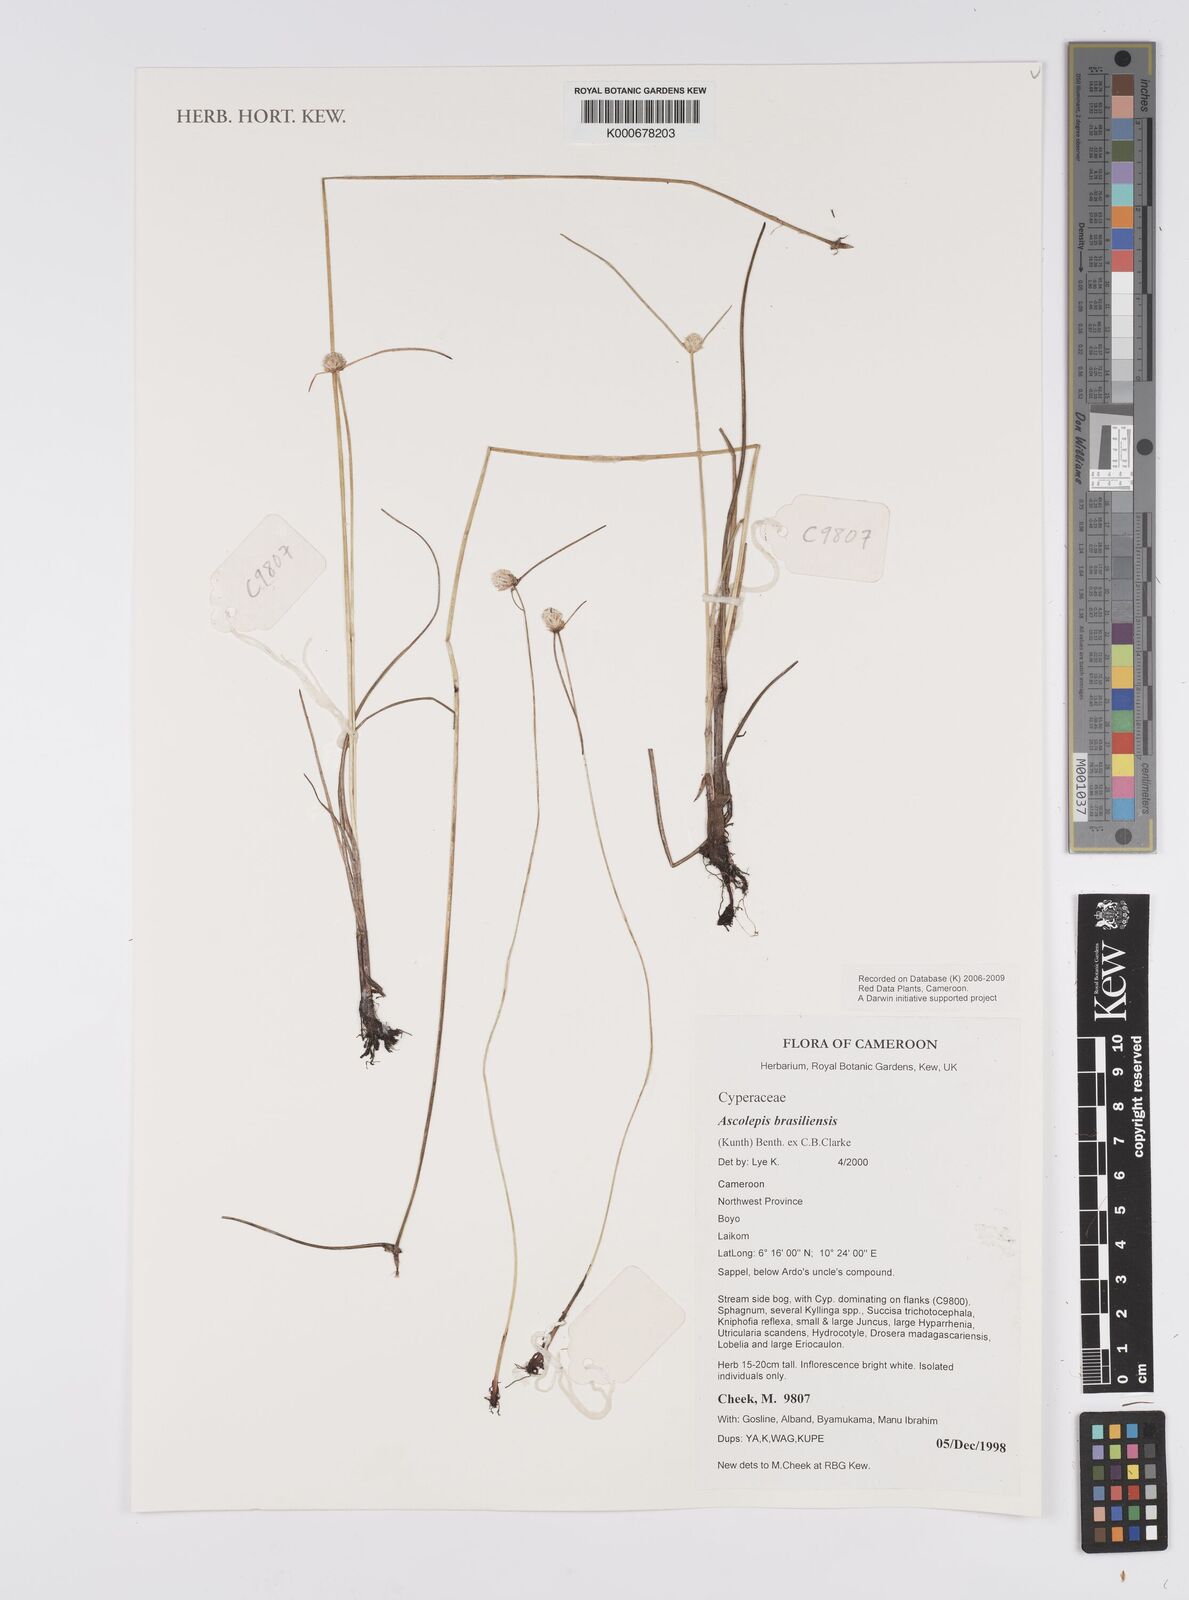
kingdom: Plantae
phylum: Tracheophyta
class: Liliopsida
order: Poales
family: Cyperaceae
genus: Cyperus
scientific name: Cyperus brasiliensis
